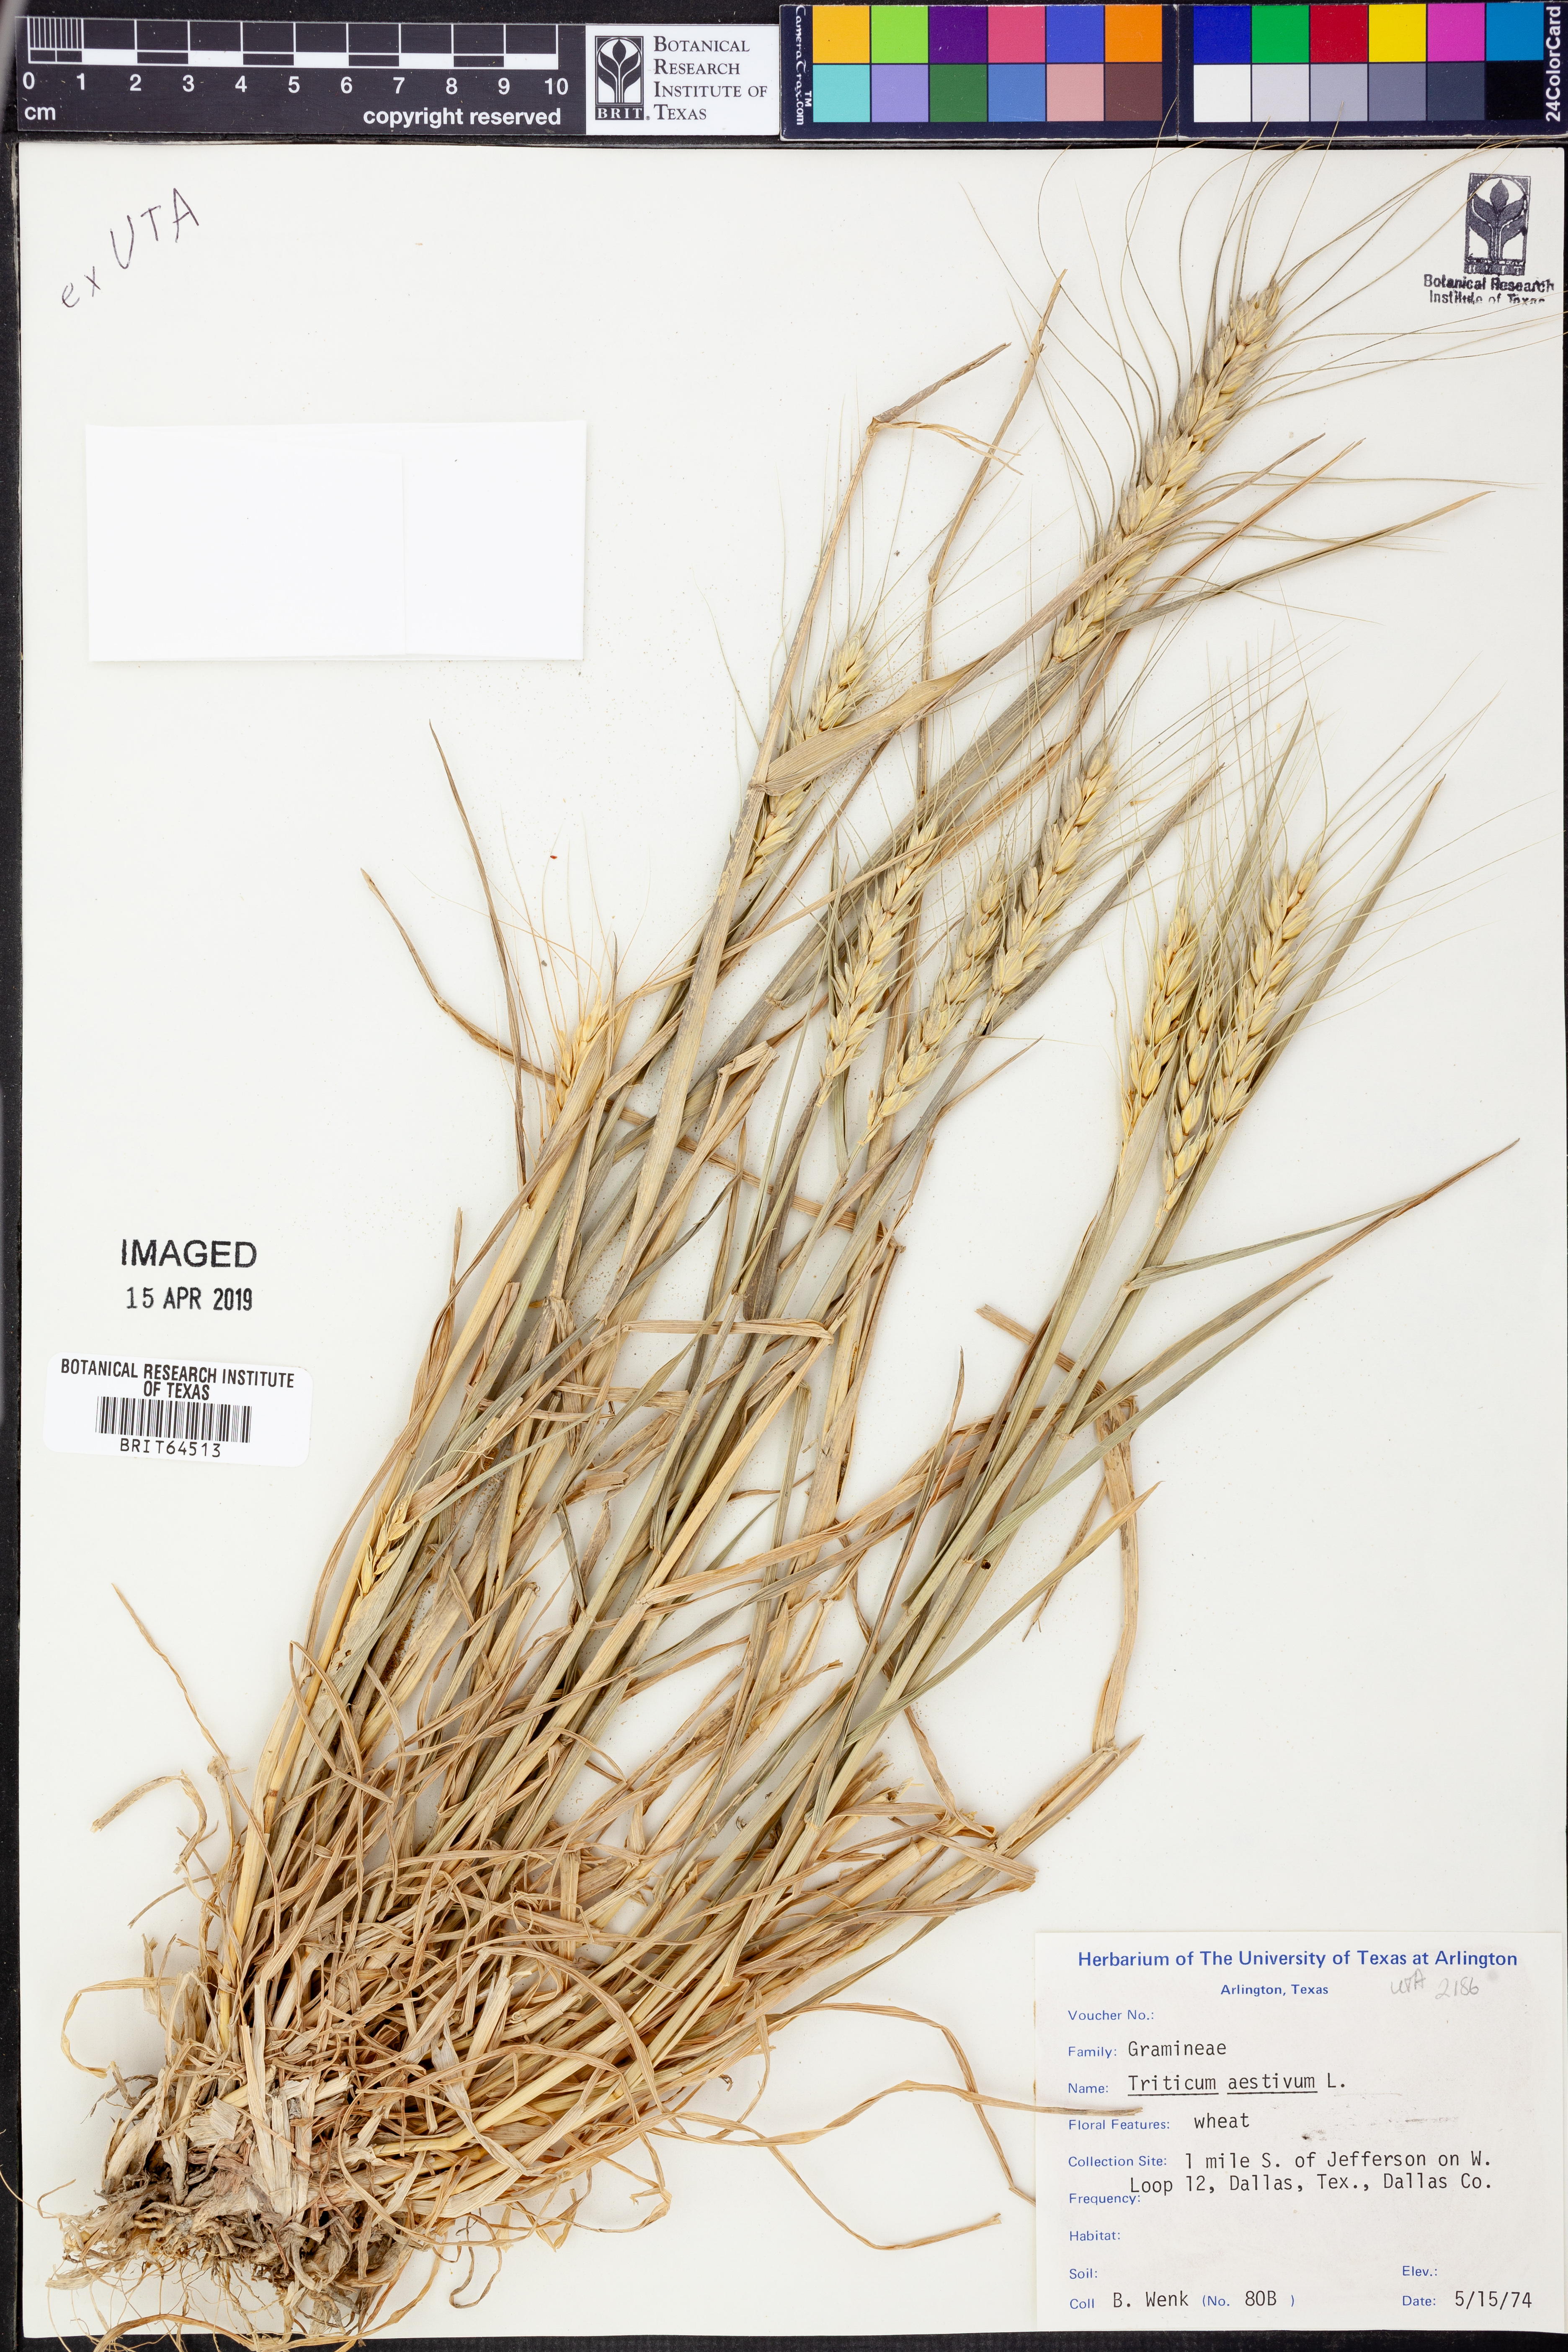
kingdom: Plantae
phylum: Tracheophyta
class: Liliopsida
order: Poales
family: Poaceae
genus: Triticum
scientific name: Triticum aestivum
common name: Common wheat
